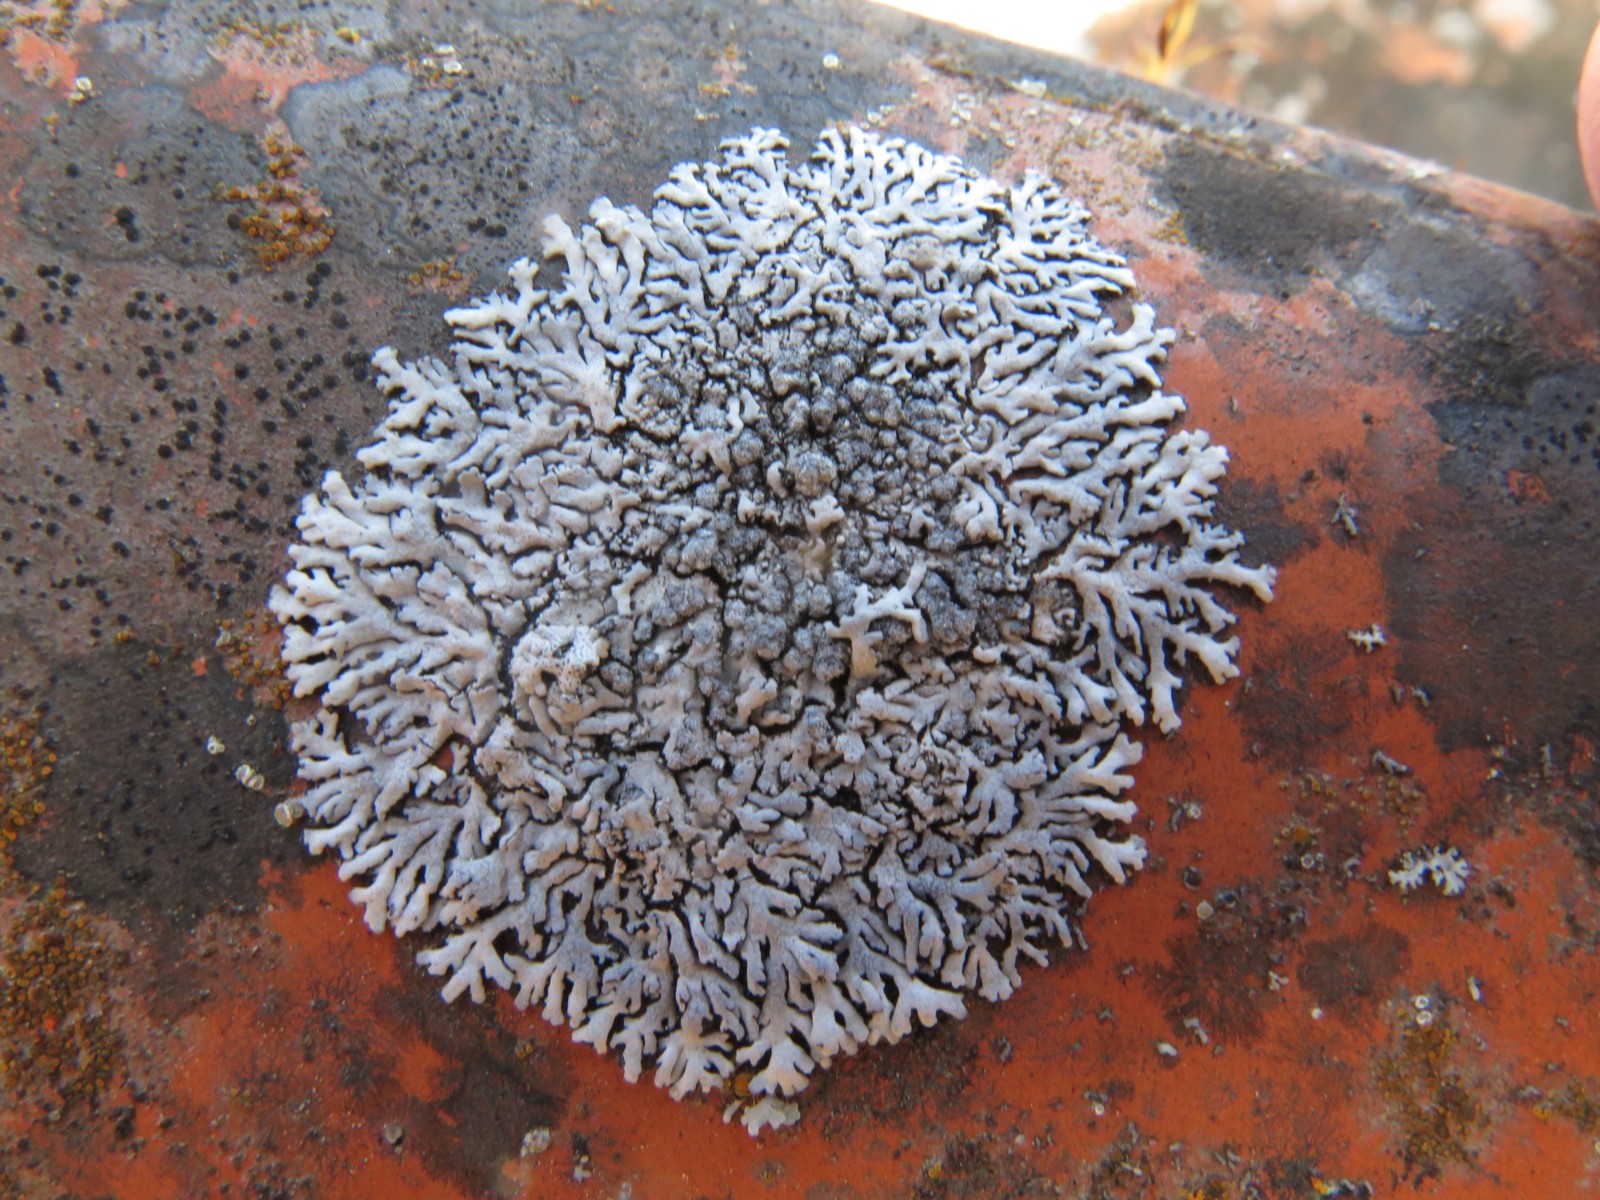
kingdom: Fungi
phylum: Ascomycota
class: Lecanoromycetes
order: Caliciales
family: Physciaceae
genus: Poeltonia
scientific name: Poeltonia grisea
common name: hvidgrå dugrosetlav
